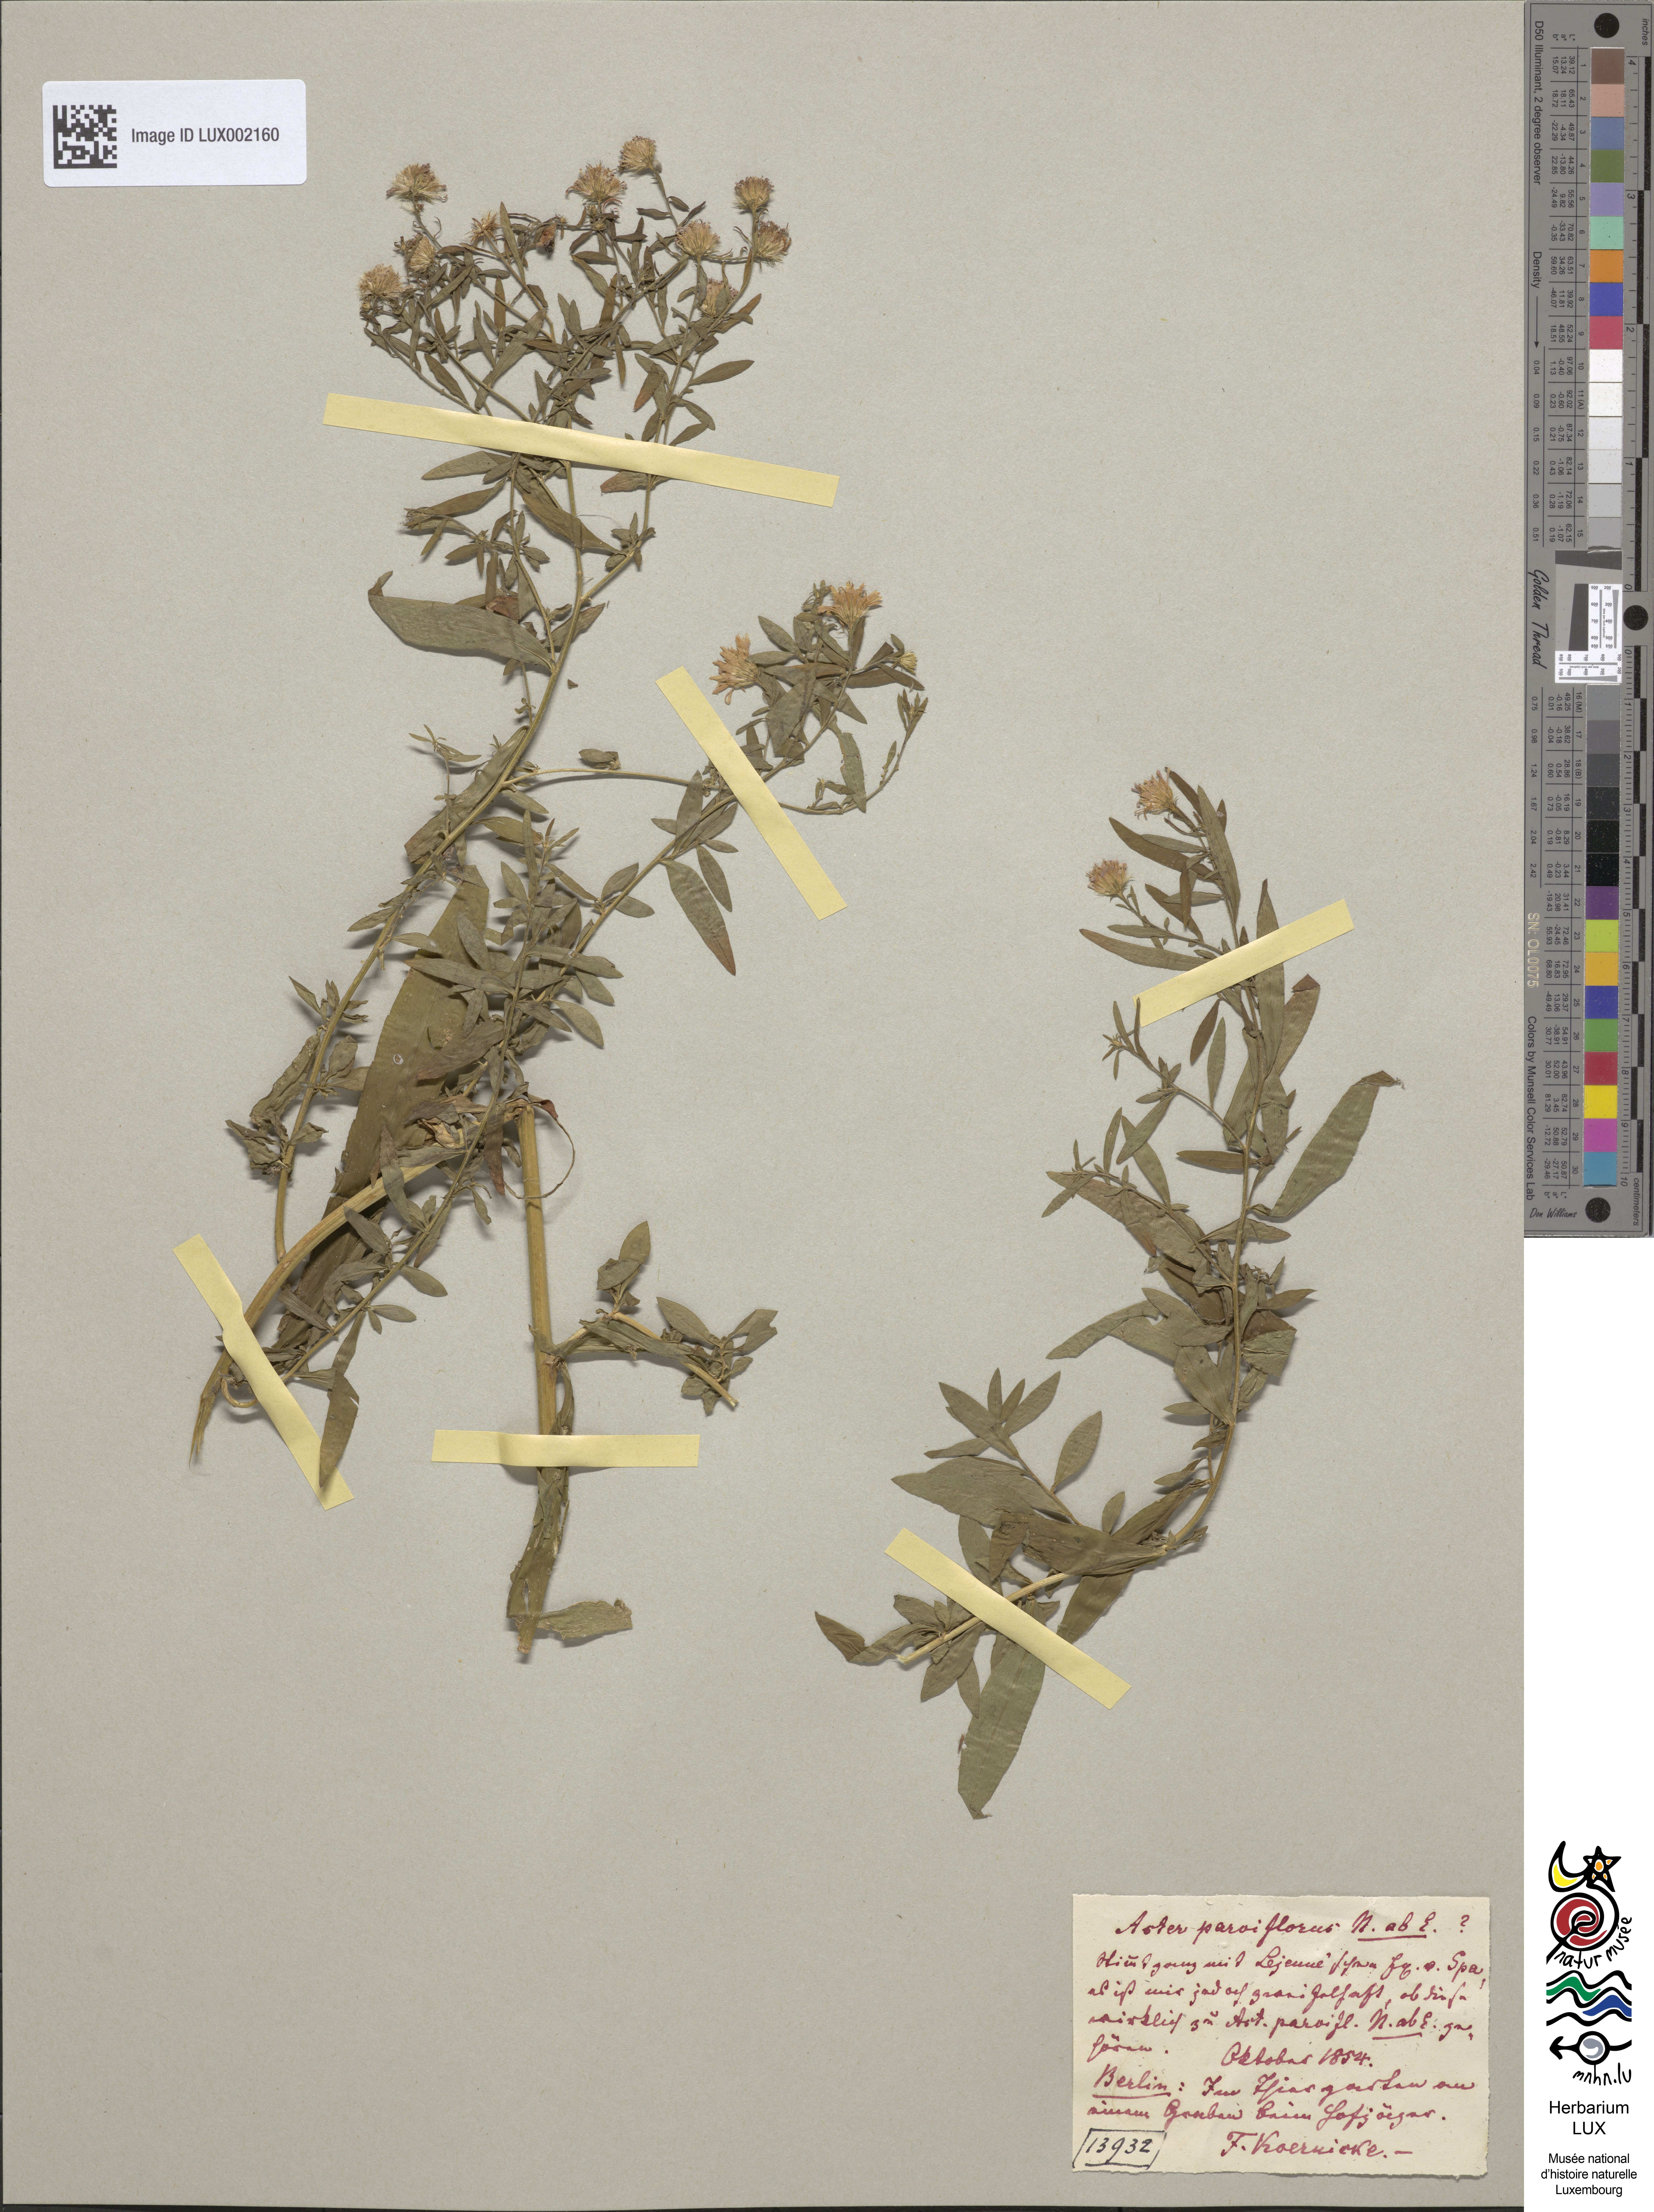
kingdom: Plantae
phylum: Tracheophyta
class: Magnoliopsida
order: Asterales
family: Asteraceae
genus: Symphyotrichum
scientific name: Symphyotrichum tradescantii
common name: Shore aster
